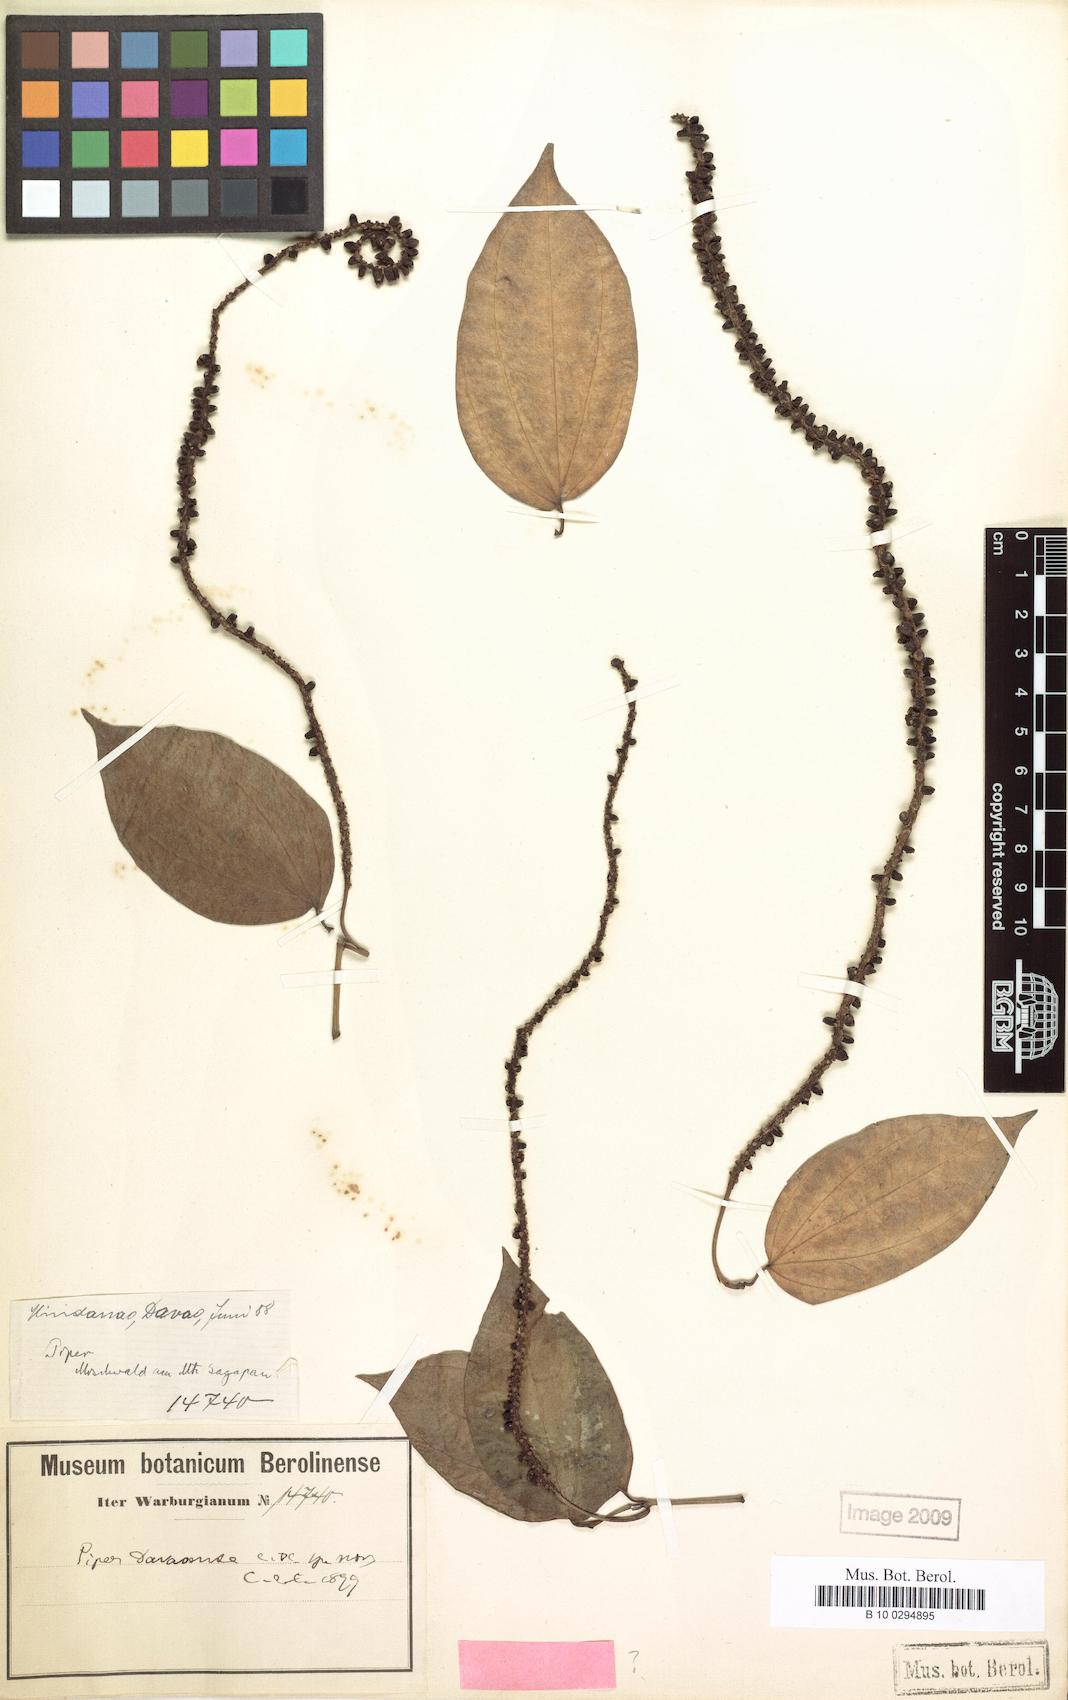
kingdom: Plantae
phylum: Tracheophyta
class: Magnoliopsida
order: Piperales
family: Piperaceae
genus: Piper
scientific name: Piper davaoense
